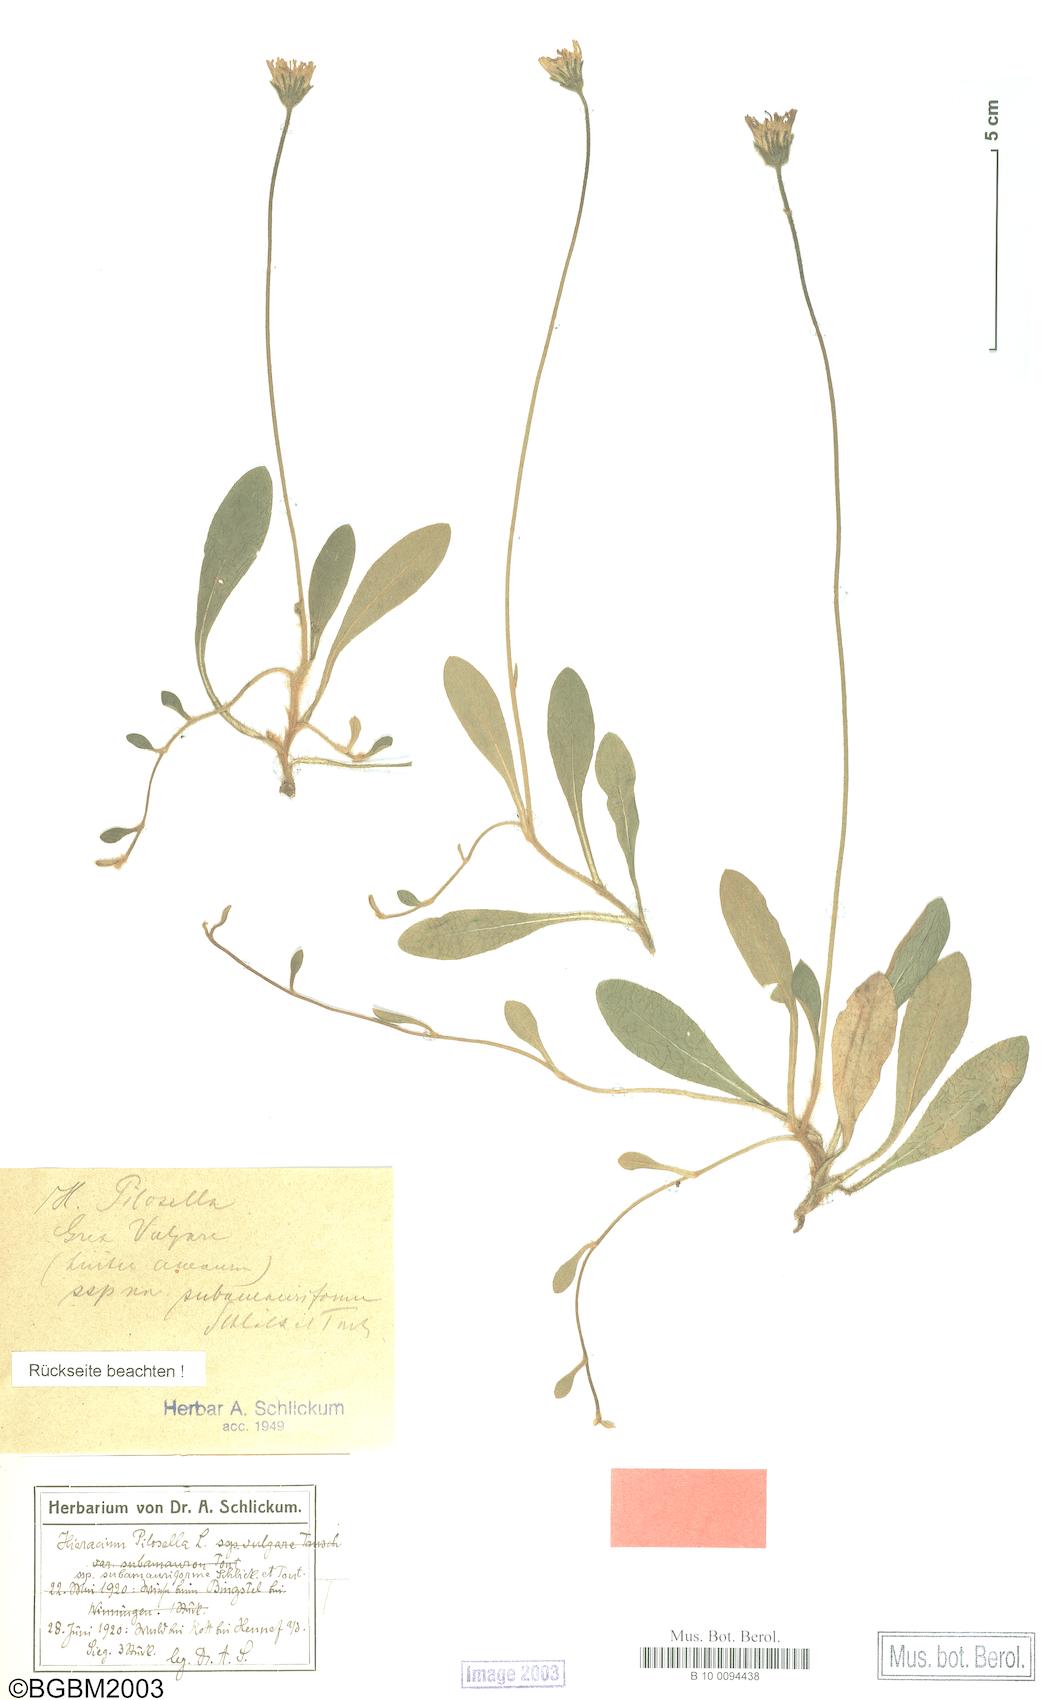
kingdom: Plantae
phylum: Tracheophyta
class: Magnoliopsida
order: Asterales
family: Asteraceae
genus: Pilosella
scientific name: Pilosella officinarum
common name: Mouse-ear hawkweed
